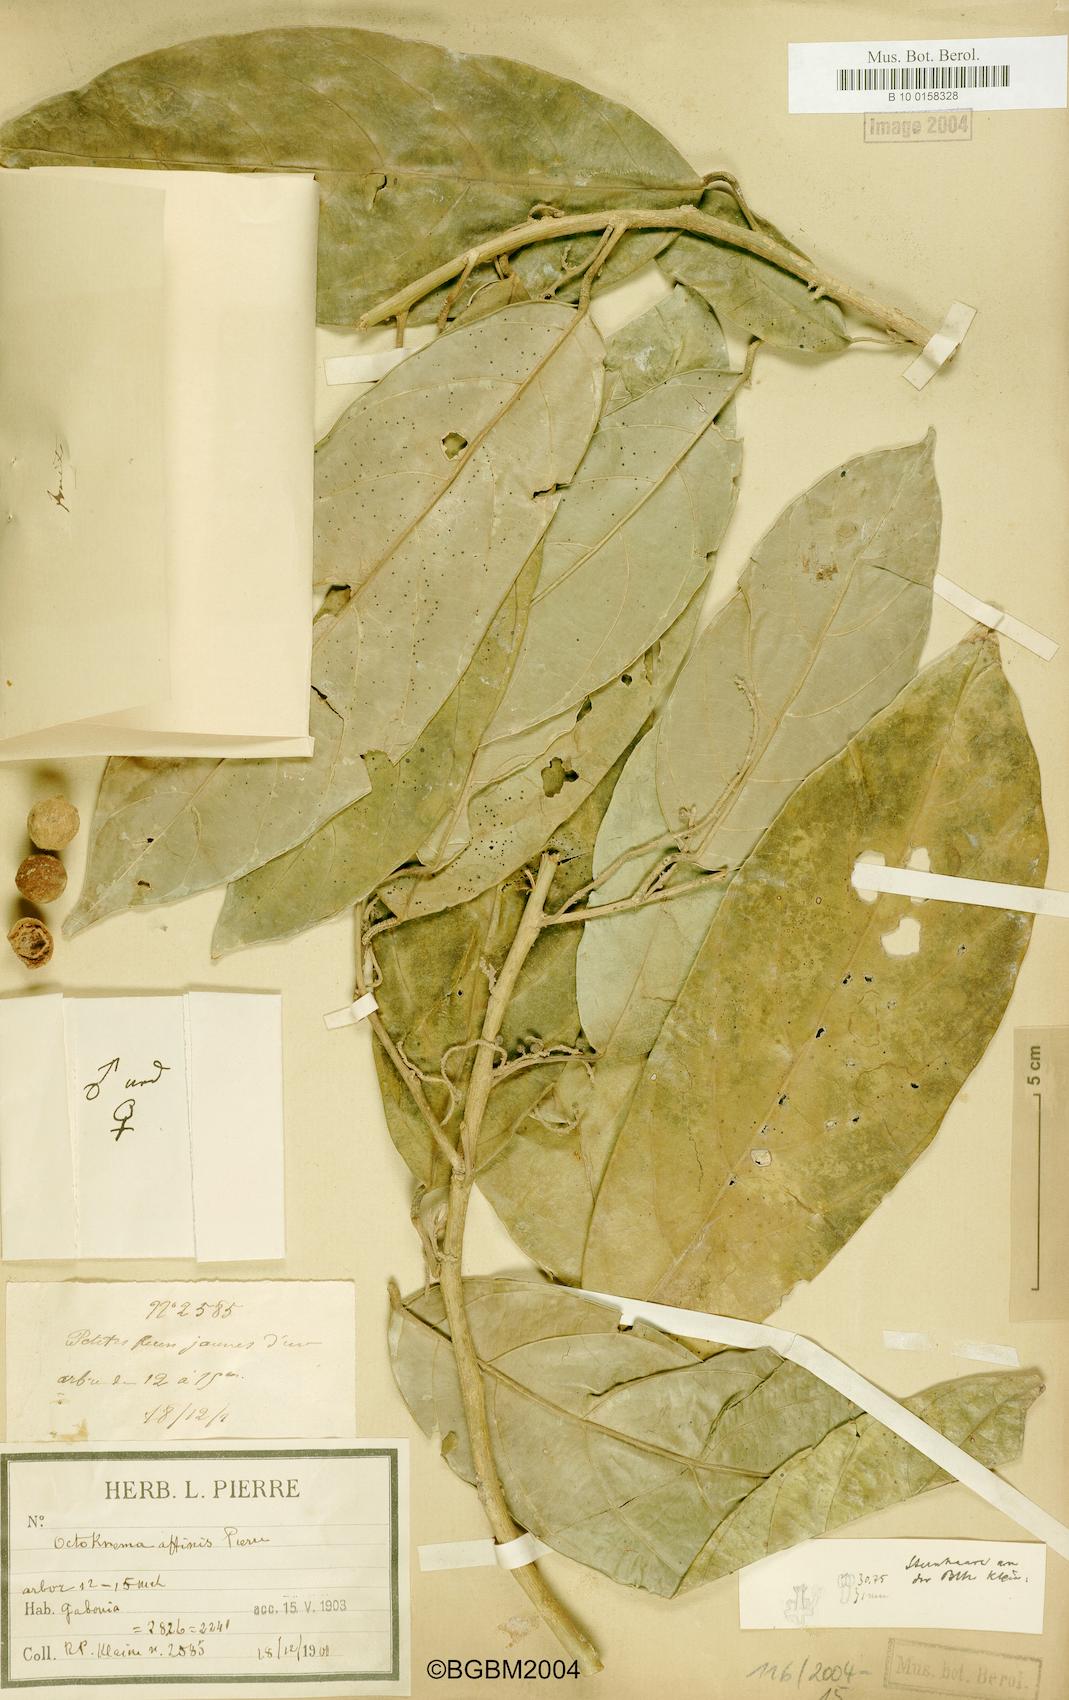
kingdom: Plantae
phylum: Tracheophyta
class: Magnoliopsida
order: Santalales
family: Octoknemaceae
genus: Octoknema
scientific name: Octoknema affinis
